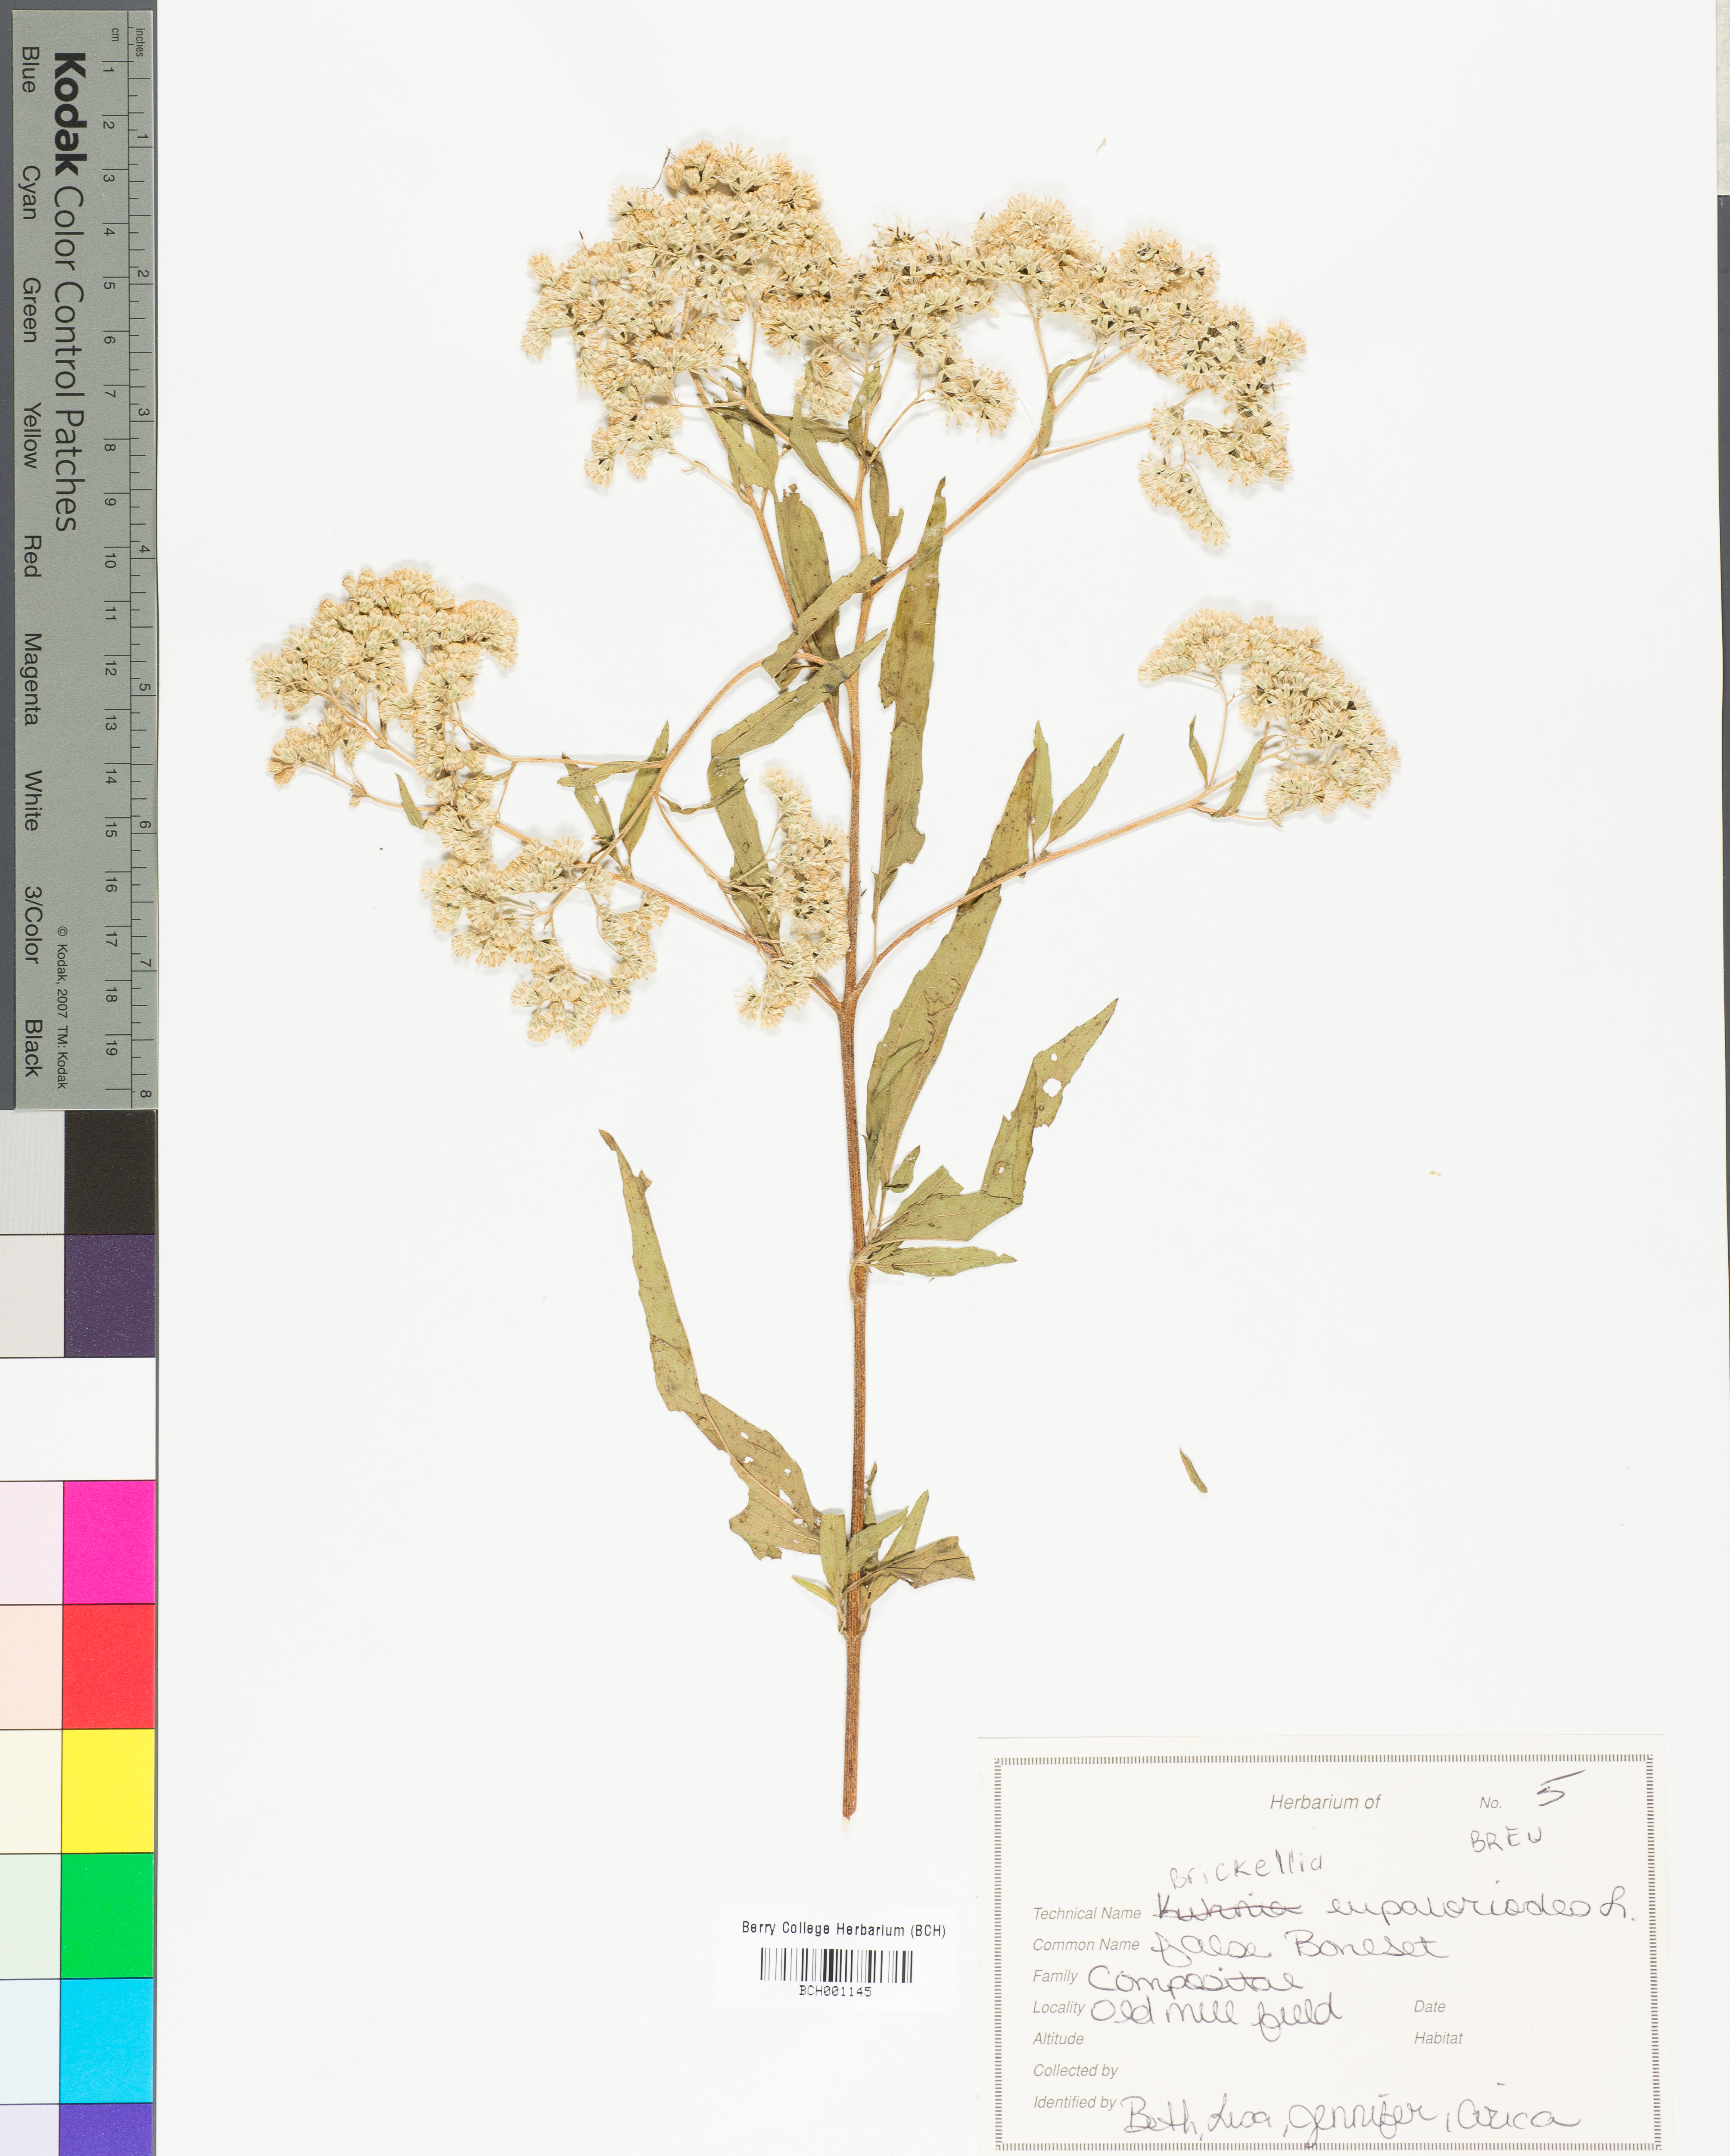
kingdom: Plantae
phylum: Tracheophyta
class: Magnoliopsida
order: Asterales
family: Asteraceae
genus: Brickellia
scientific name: Brickellia eupatorioides
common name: False boneset
